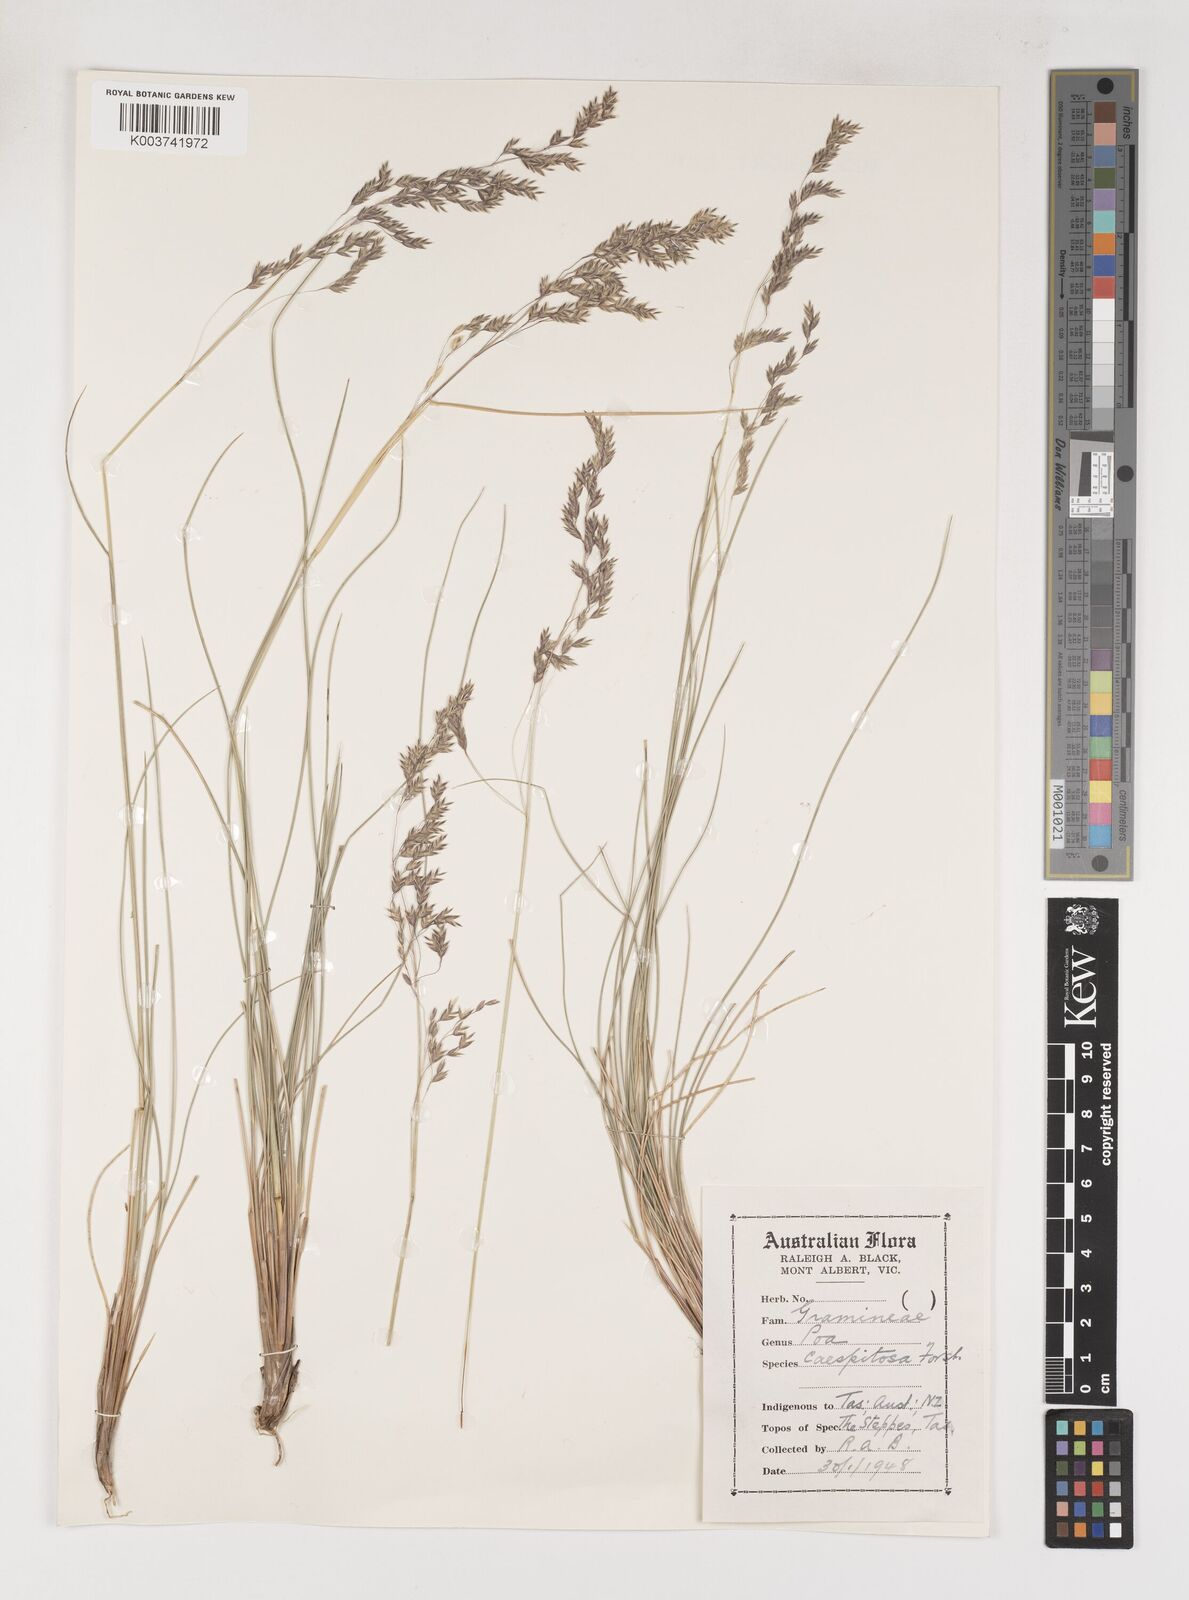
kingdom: Plantae
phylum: Tracheophyta
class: Liliopsida
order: Poales
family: Poaceae
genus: Poa
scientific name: Poa tenera
